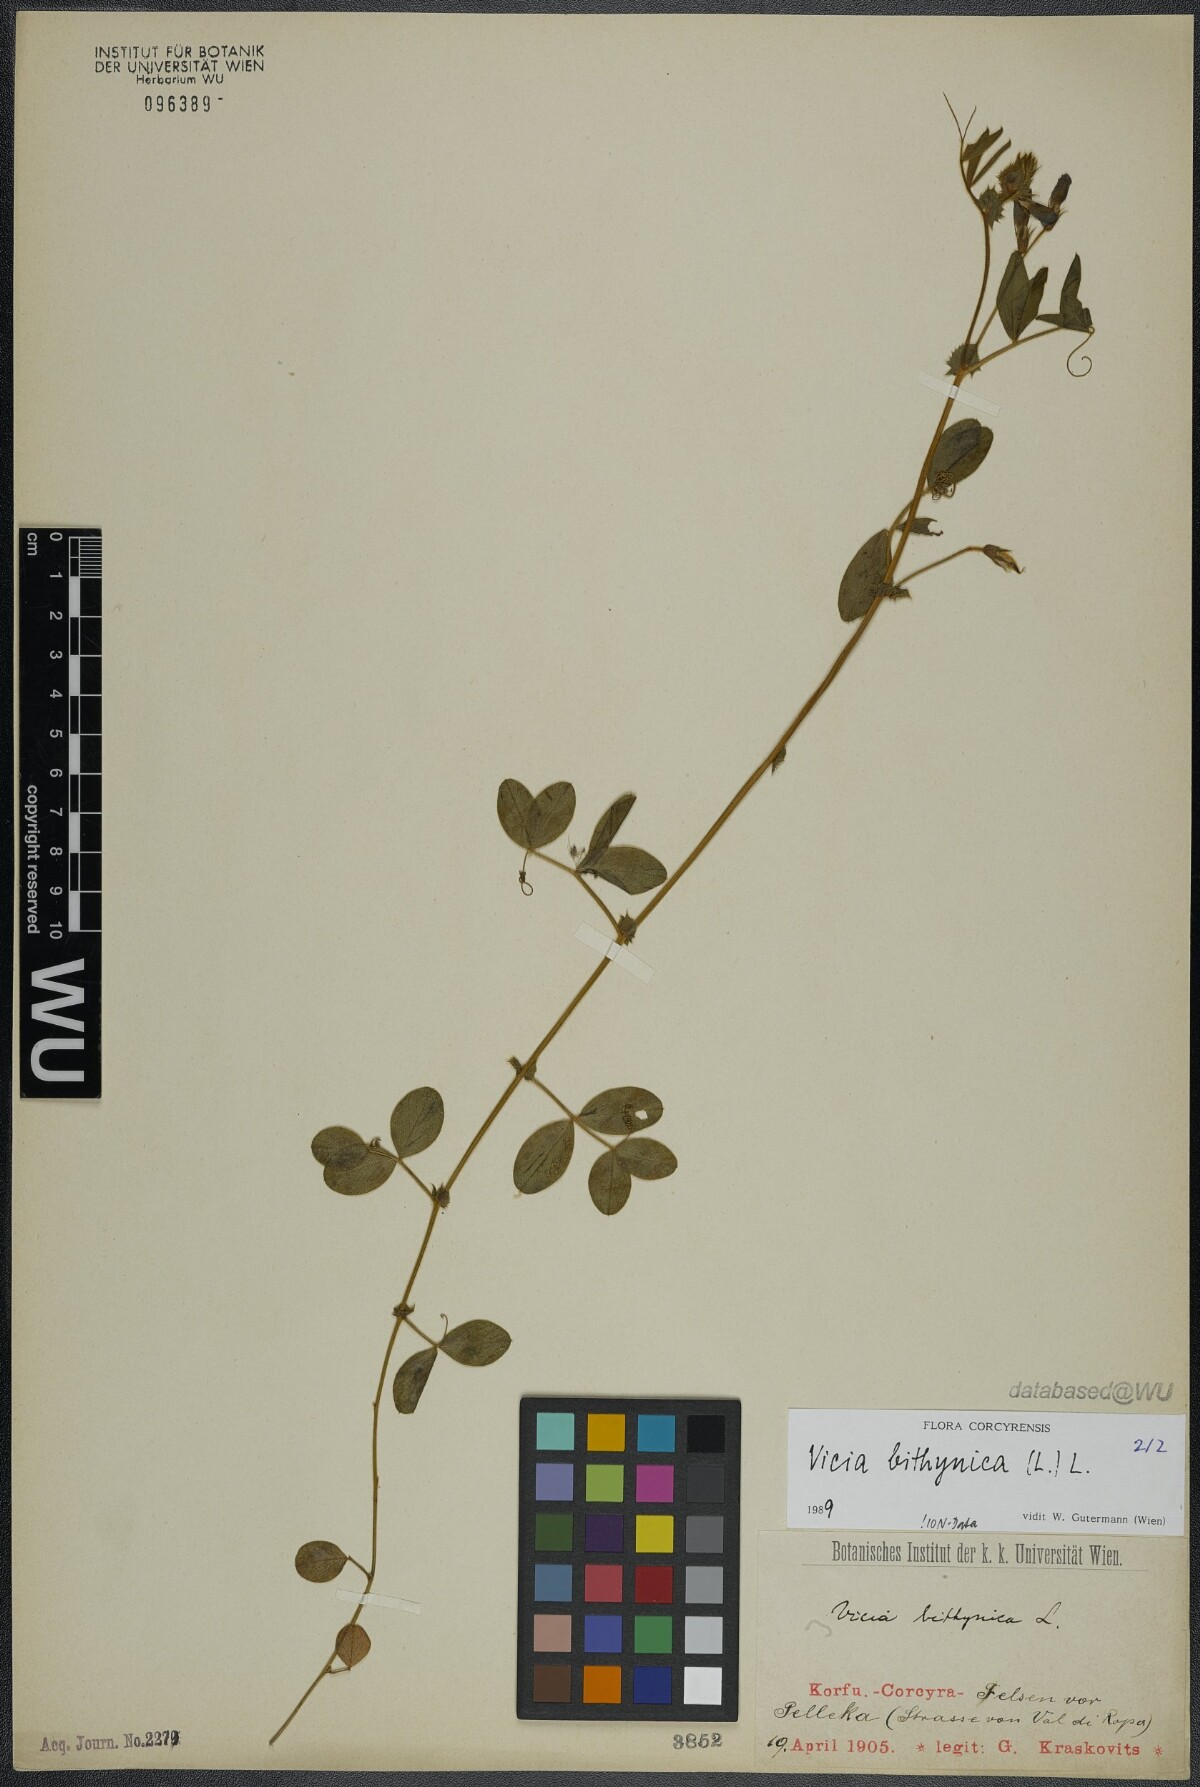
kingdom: Plantae
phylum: Tracheophyta
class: Magnoliopsida
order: Fabales
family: Fabaceae
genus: Vicia
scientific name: Vicia bithynica
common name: Bithynian vetch
